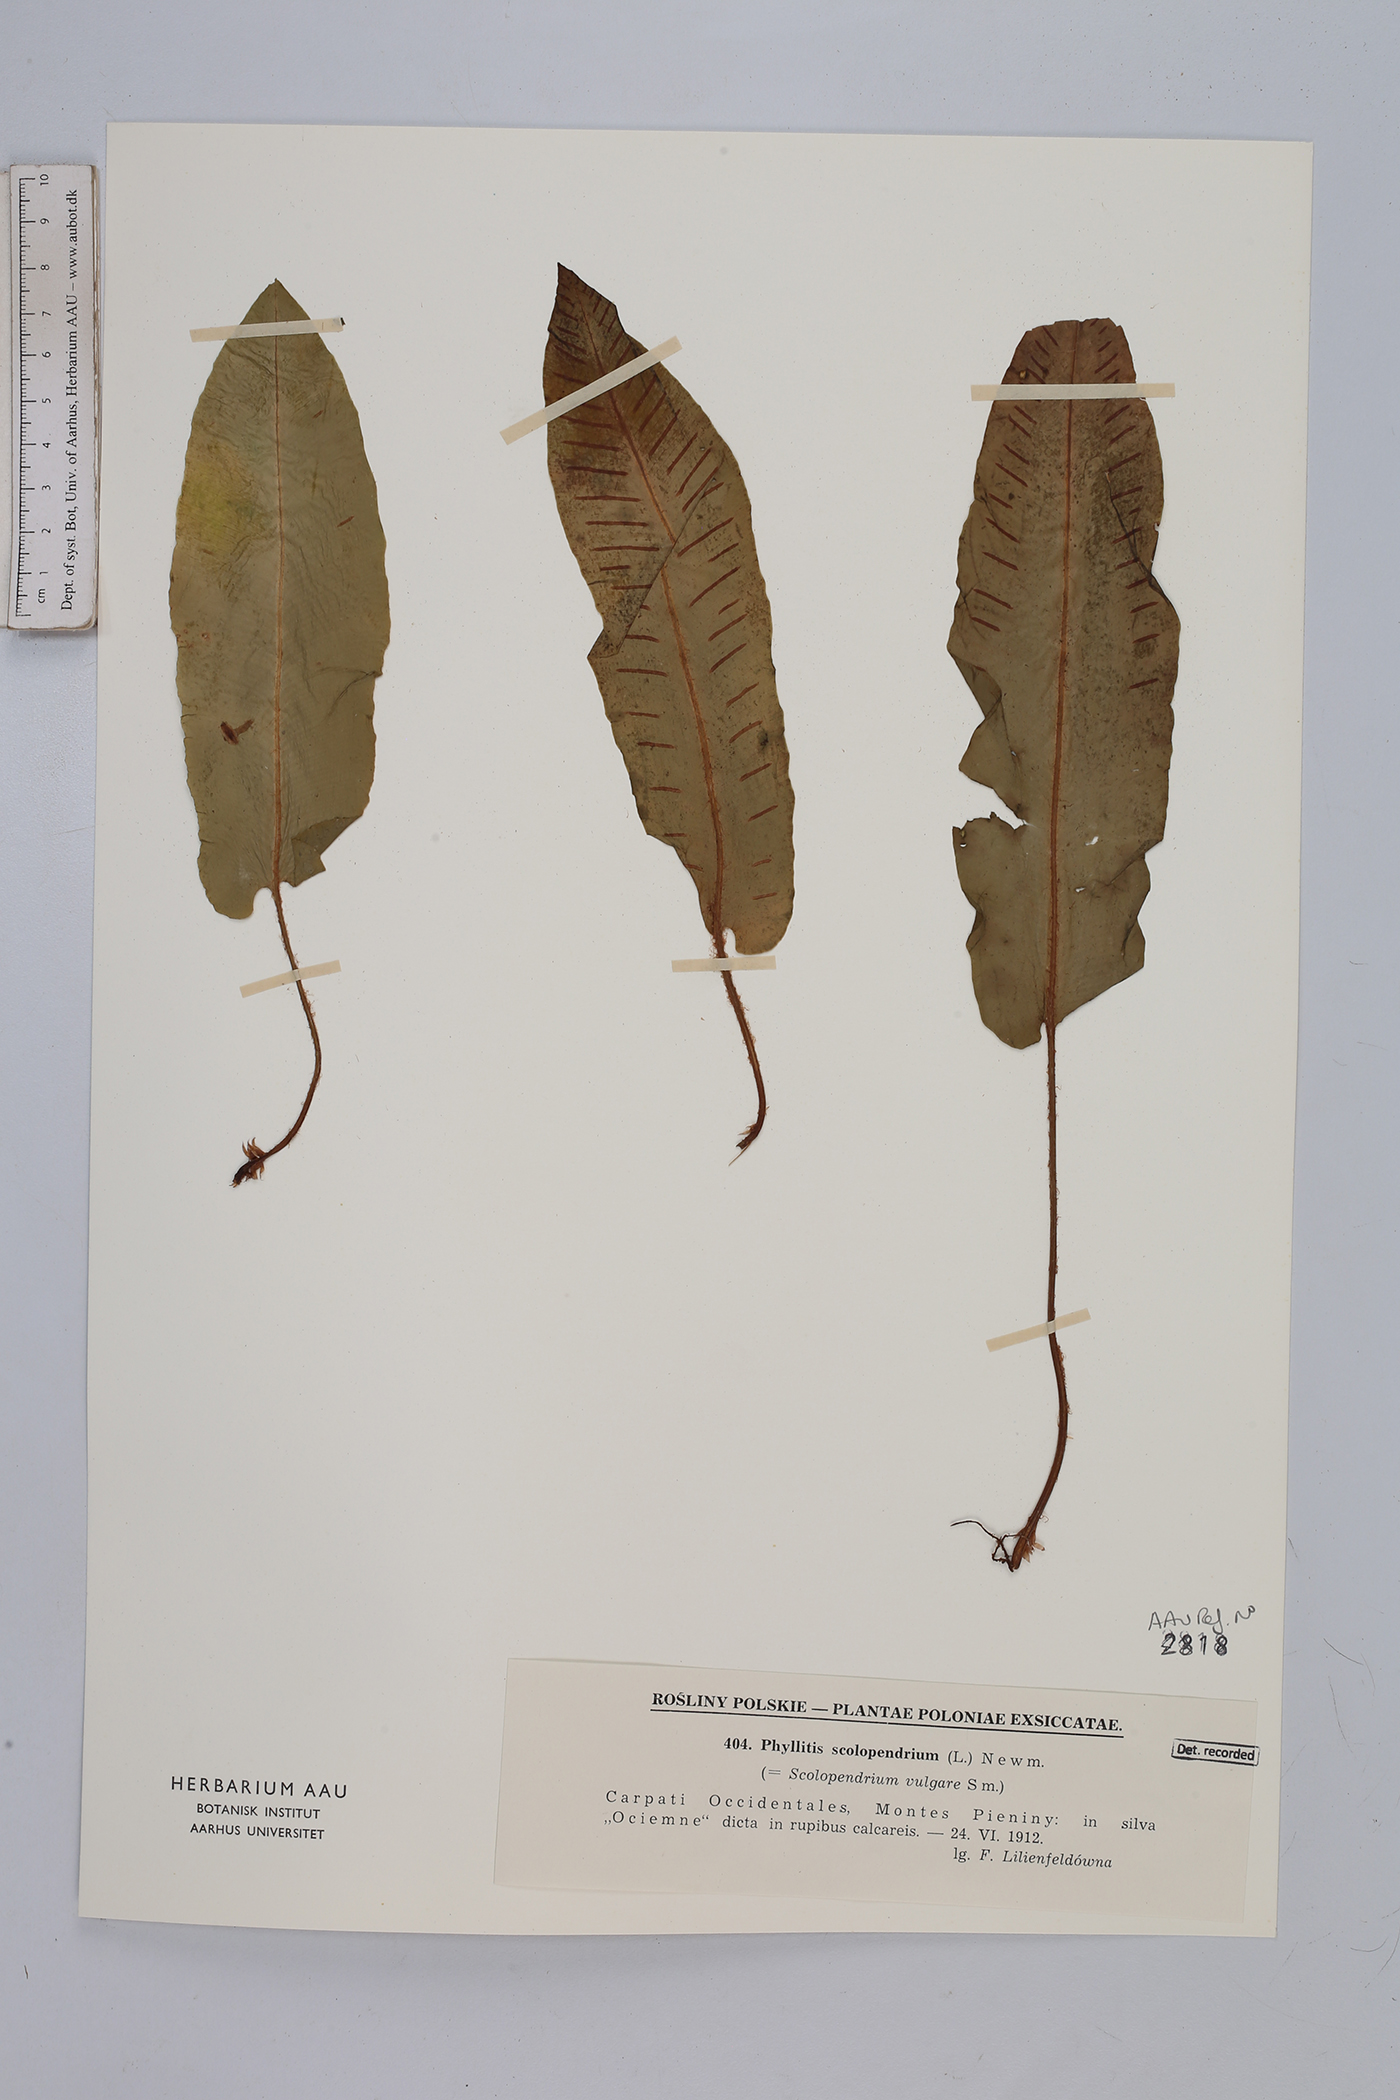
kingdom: Plantae
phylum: Tracheophyta
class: Polypodiopsida
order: Polypodiales
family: Aspleniaceae
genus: Asplenium
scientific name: Asplenium scolopendrium
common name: Hart's-tongue fern
